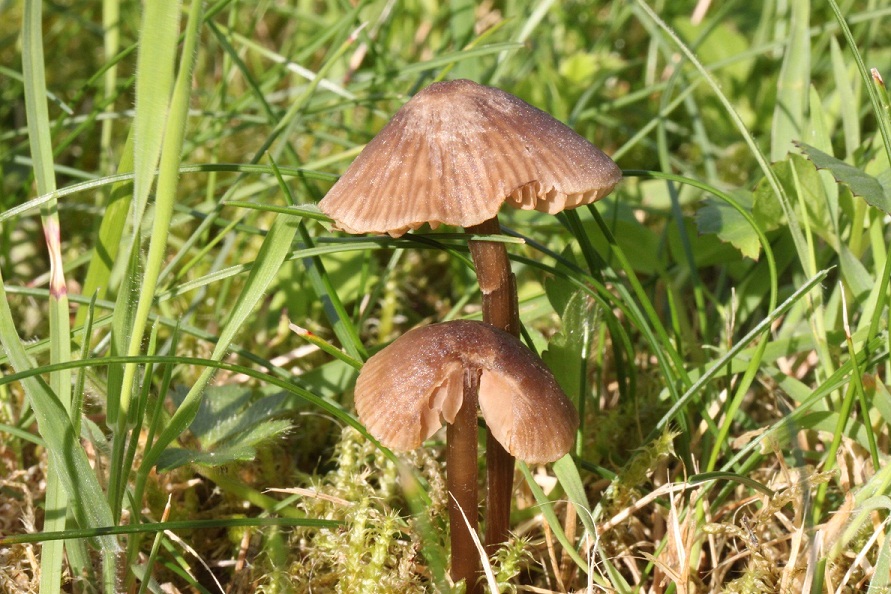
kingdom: Fungi
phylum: Basidiomycota
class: Agaricomycetes
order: Agaricales
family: Entolomataceae
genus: Entoloma
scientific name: Entoloma
